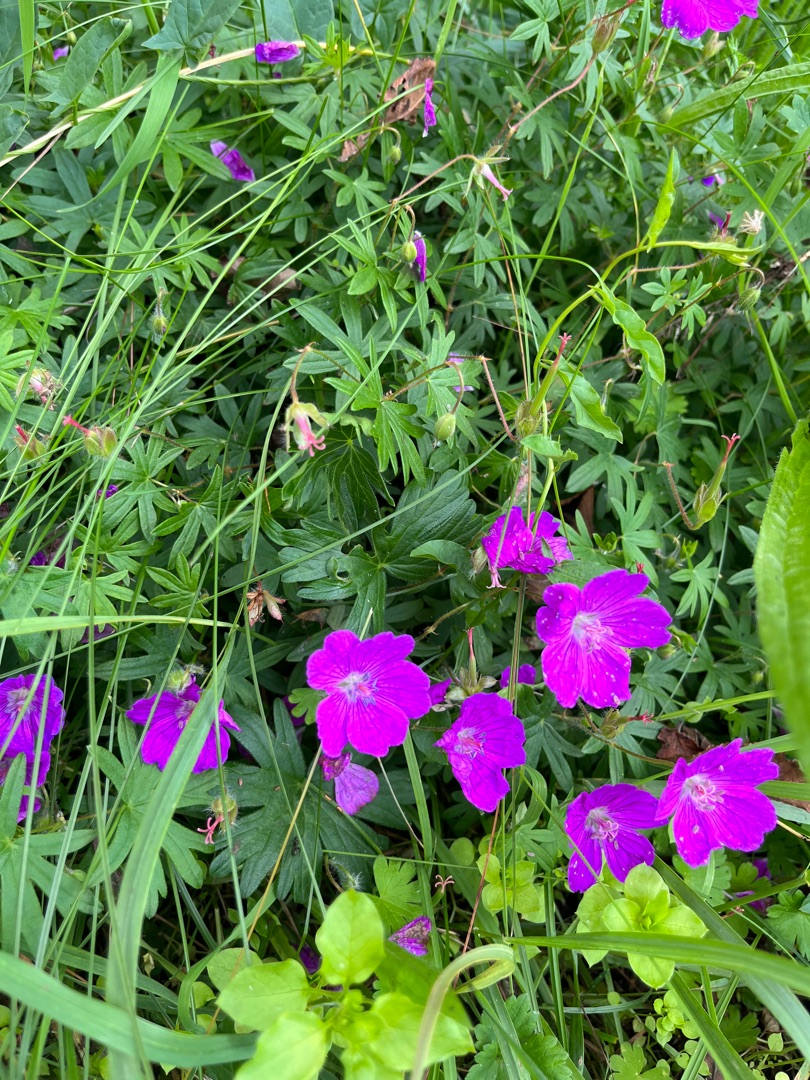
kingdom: Plantae
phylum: Tracheophyta
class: Magnoliopsida
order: Geraniales
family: Geraniaceae
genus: Geranium
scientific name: Geranium sanguineum
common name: Blodrød storkenæb
